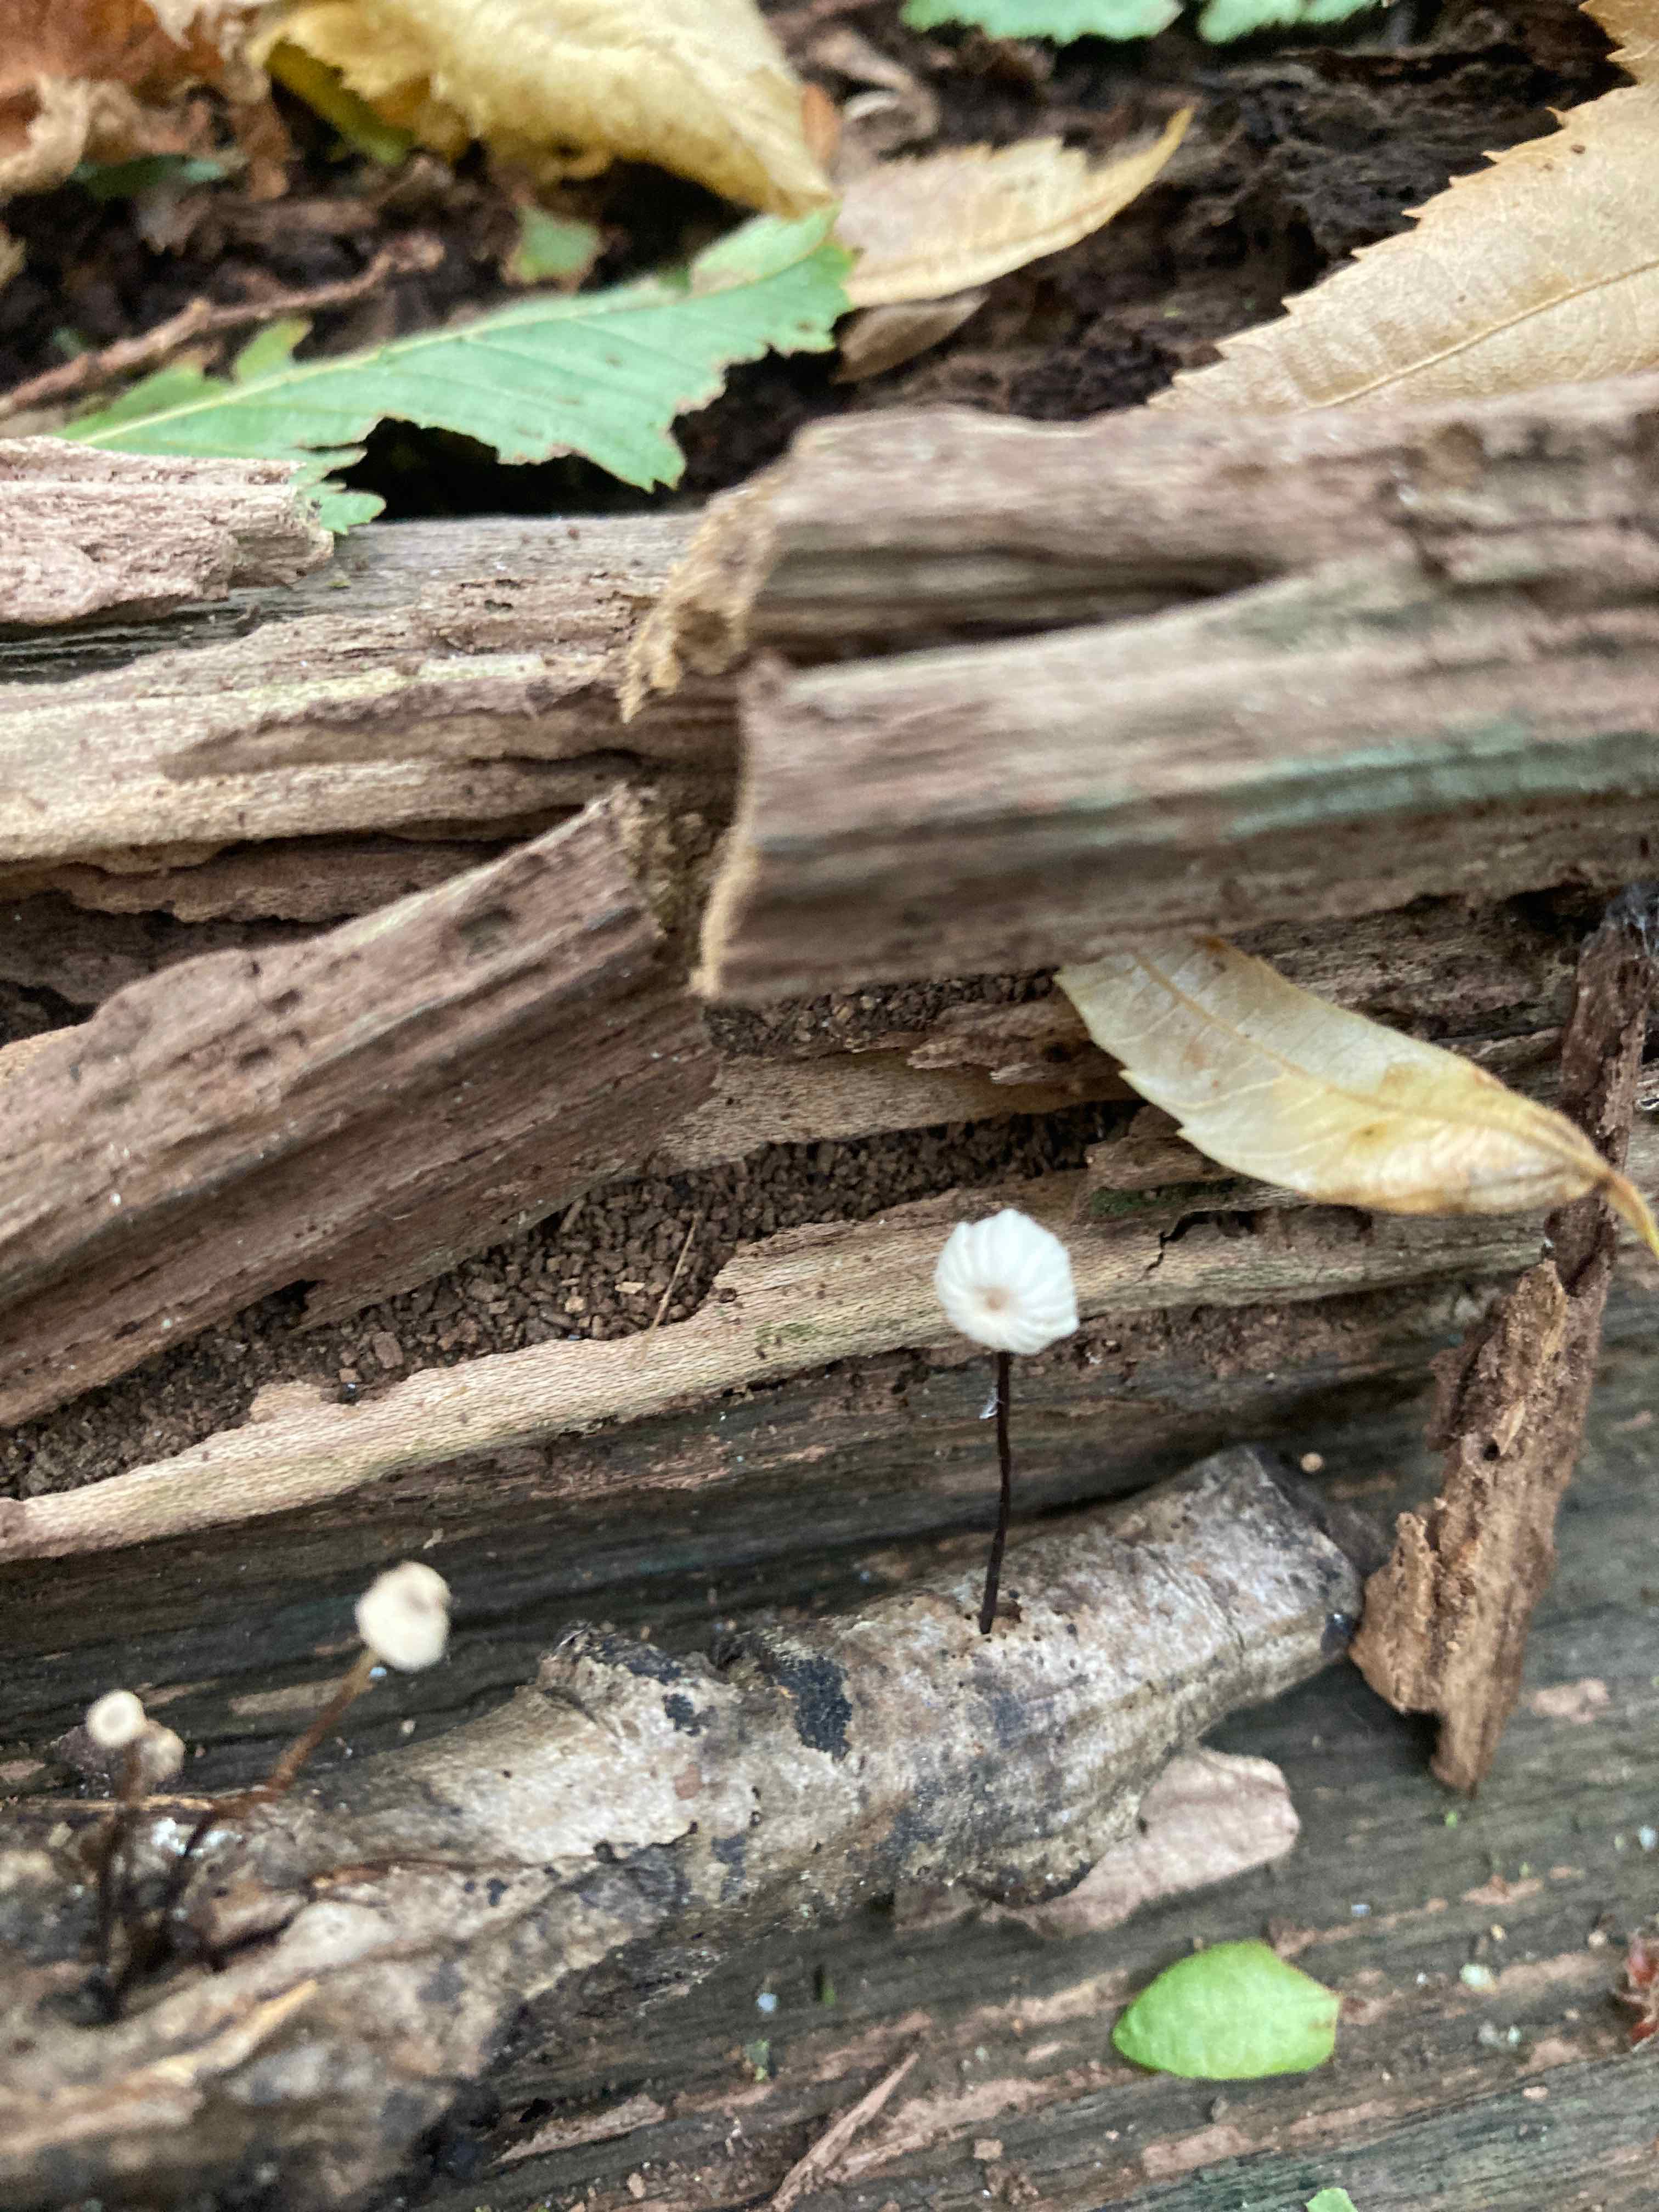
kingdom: Fungi
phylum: Basidiomycota
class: Agaricomycetes
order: Agaricales
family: Marasmiaceae
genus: Marasmius
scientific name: Marasmius rotula
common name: hjul-bruskhat
